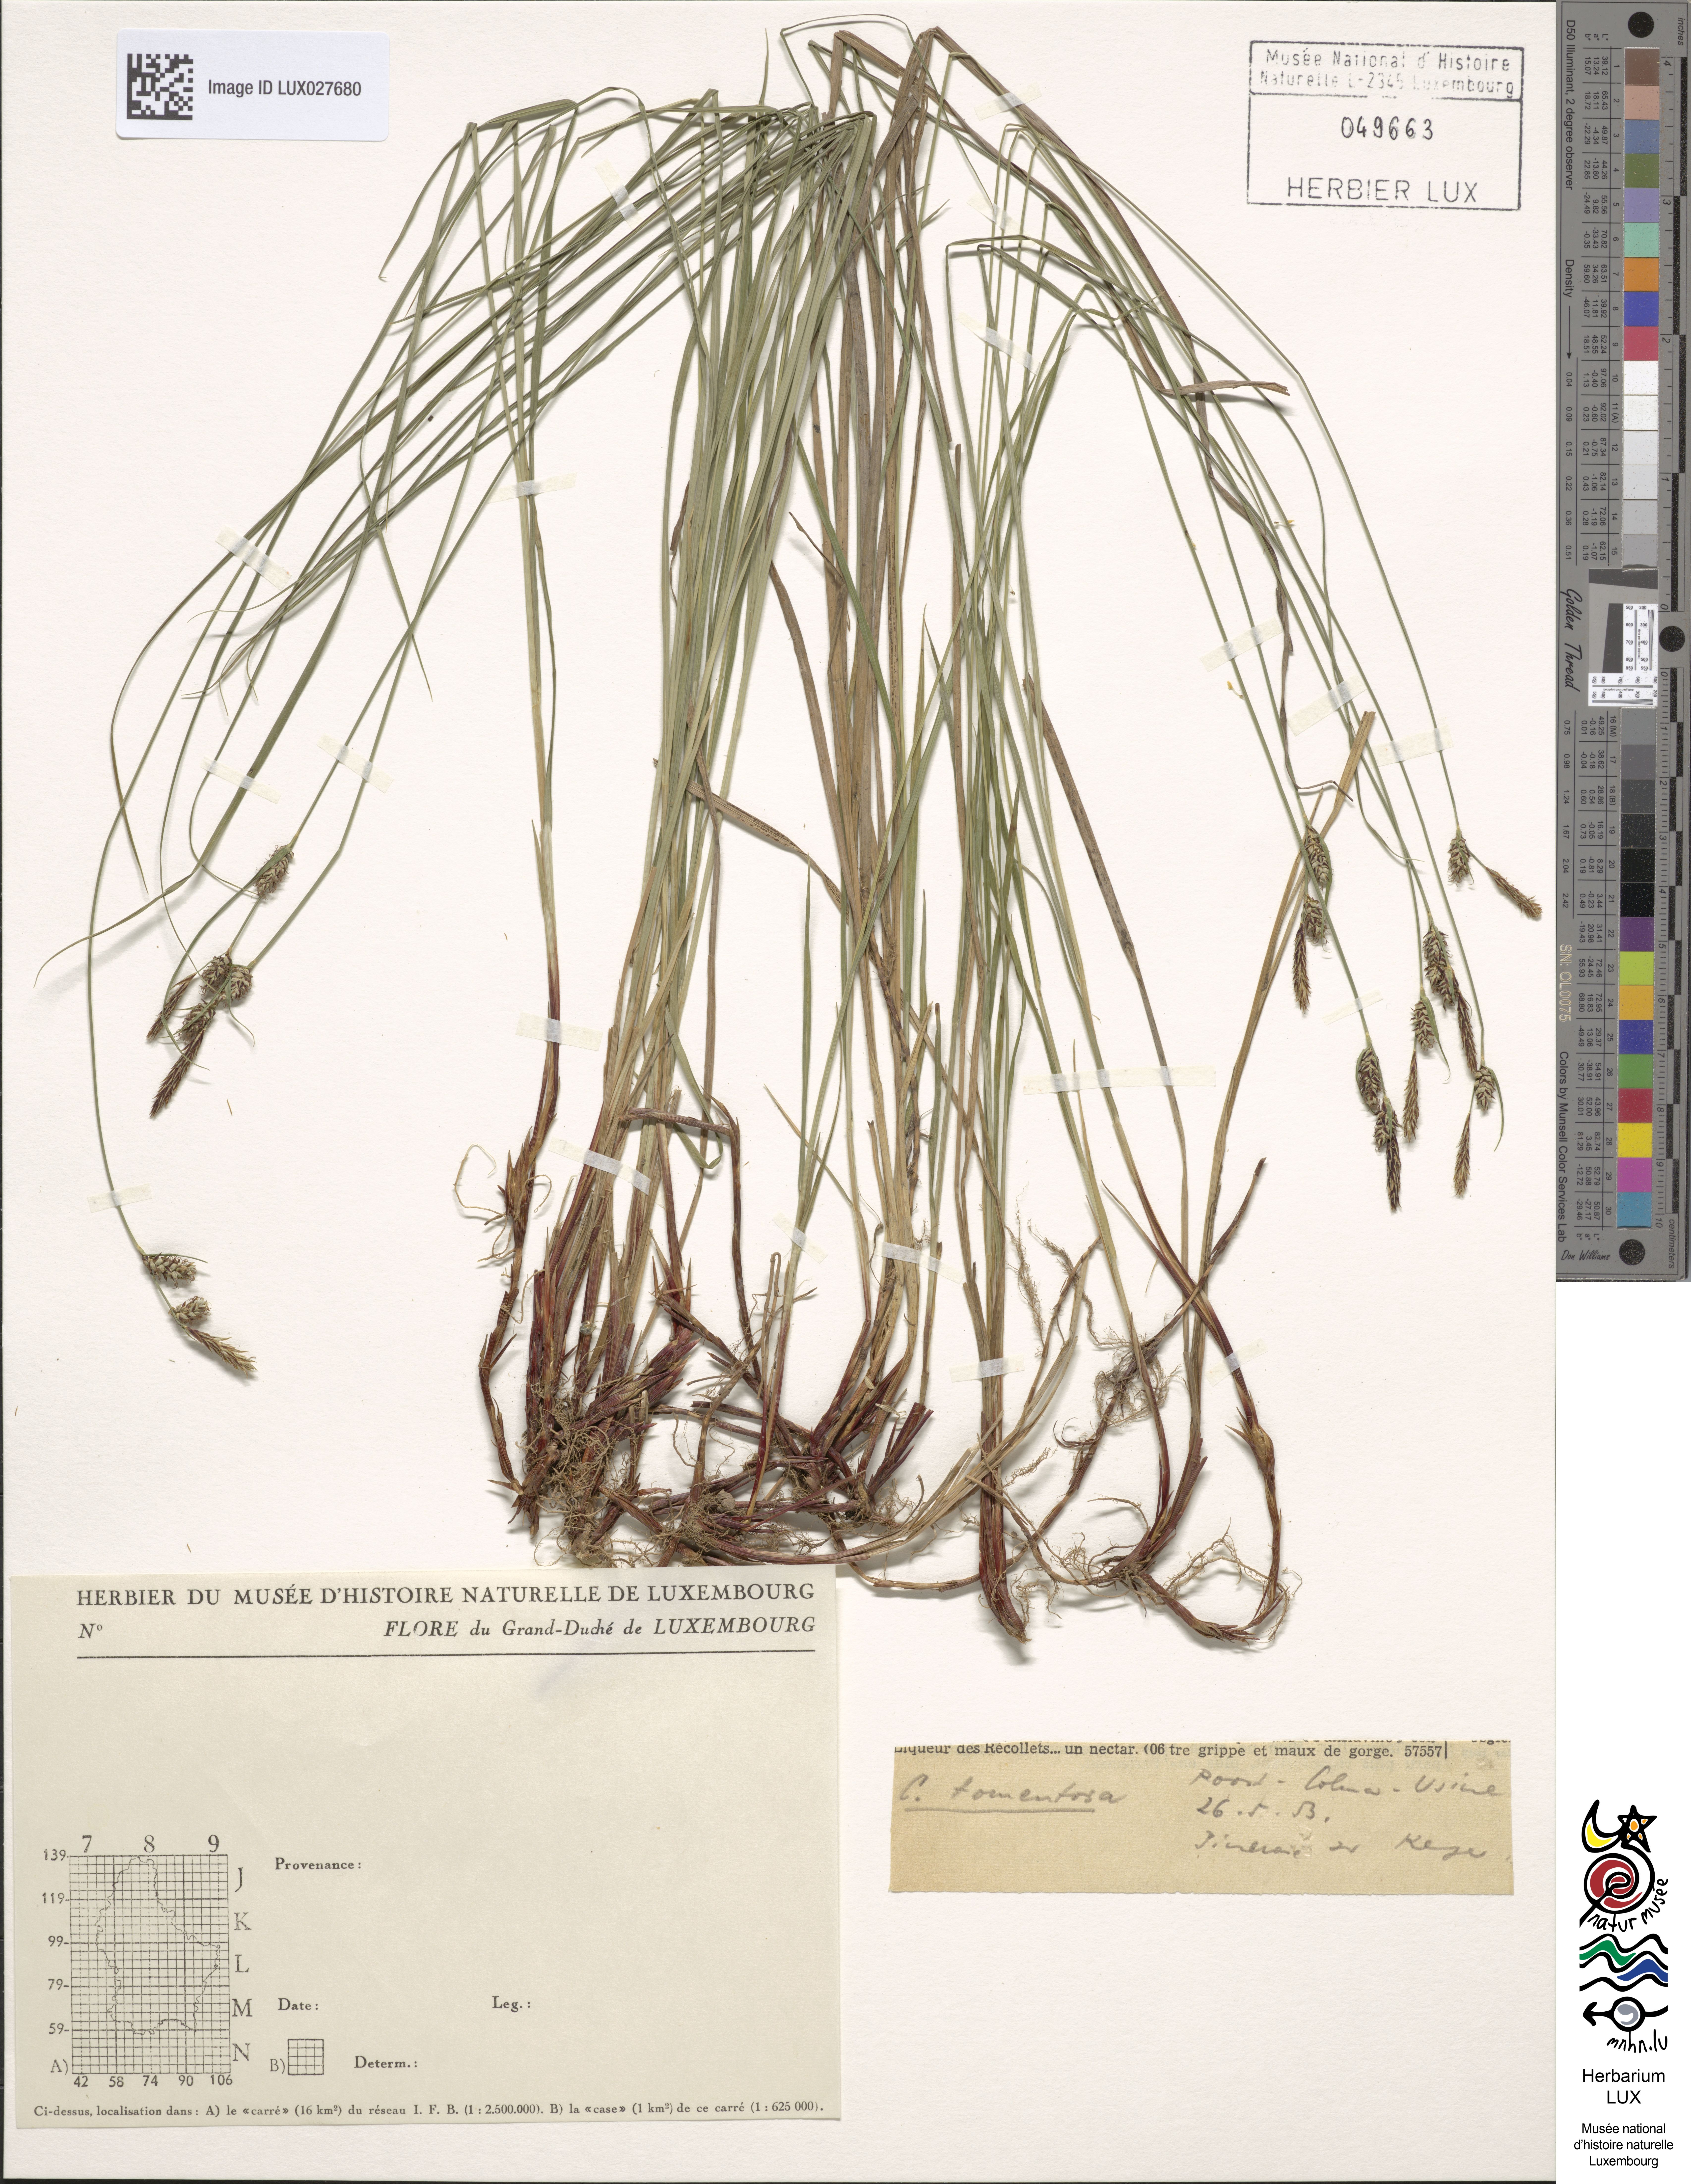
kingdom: Plantae
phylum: Tracheophyta
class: Liliopsida
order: Poales
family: Cyperaceae
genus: Carex
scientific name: Carex tomentosa
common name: Downy-fruited sedge
